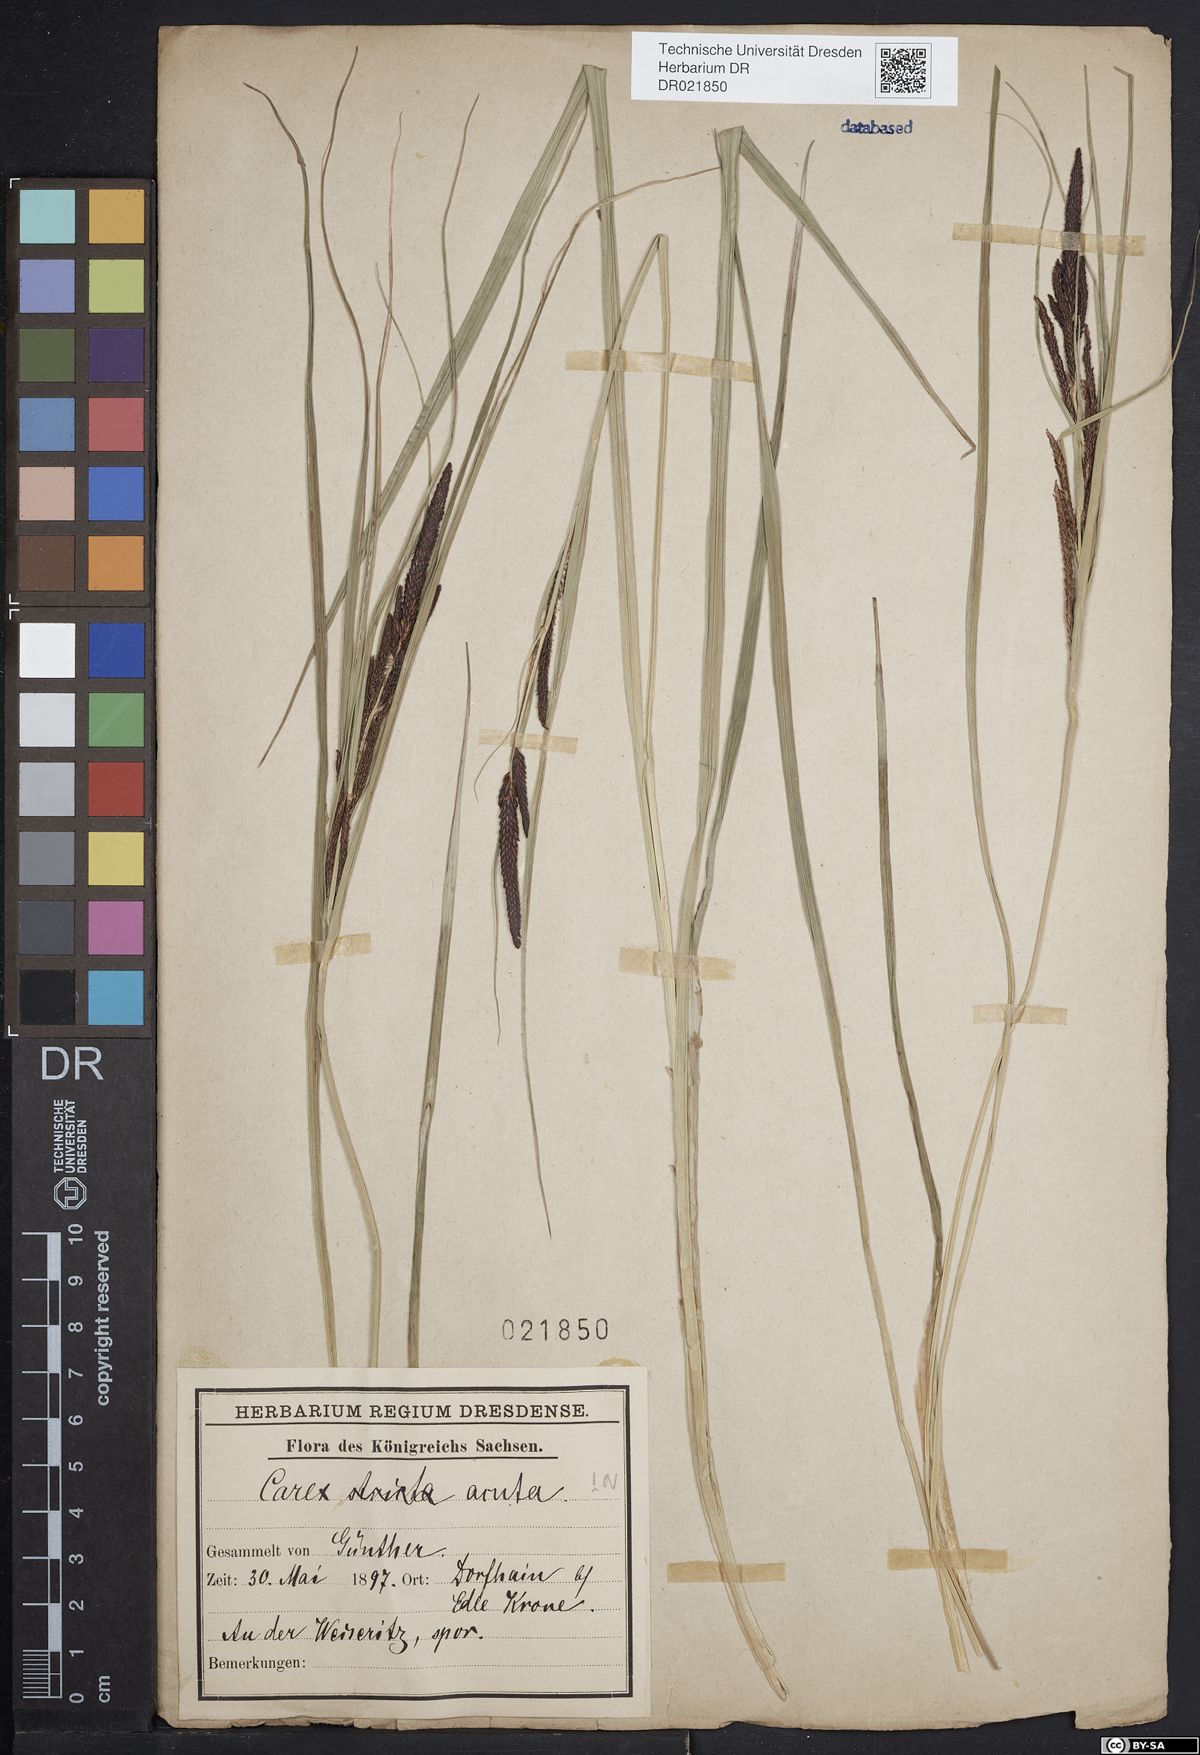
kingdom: Plantae
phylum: Tracheophyta
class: Liliopsida
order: Poales
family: Cyperaceae
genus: Carex
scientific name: Carex acuta
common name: Slender tufted-sedge
